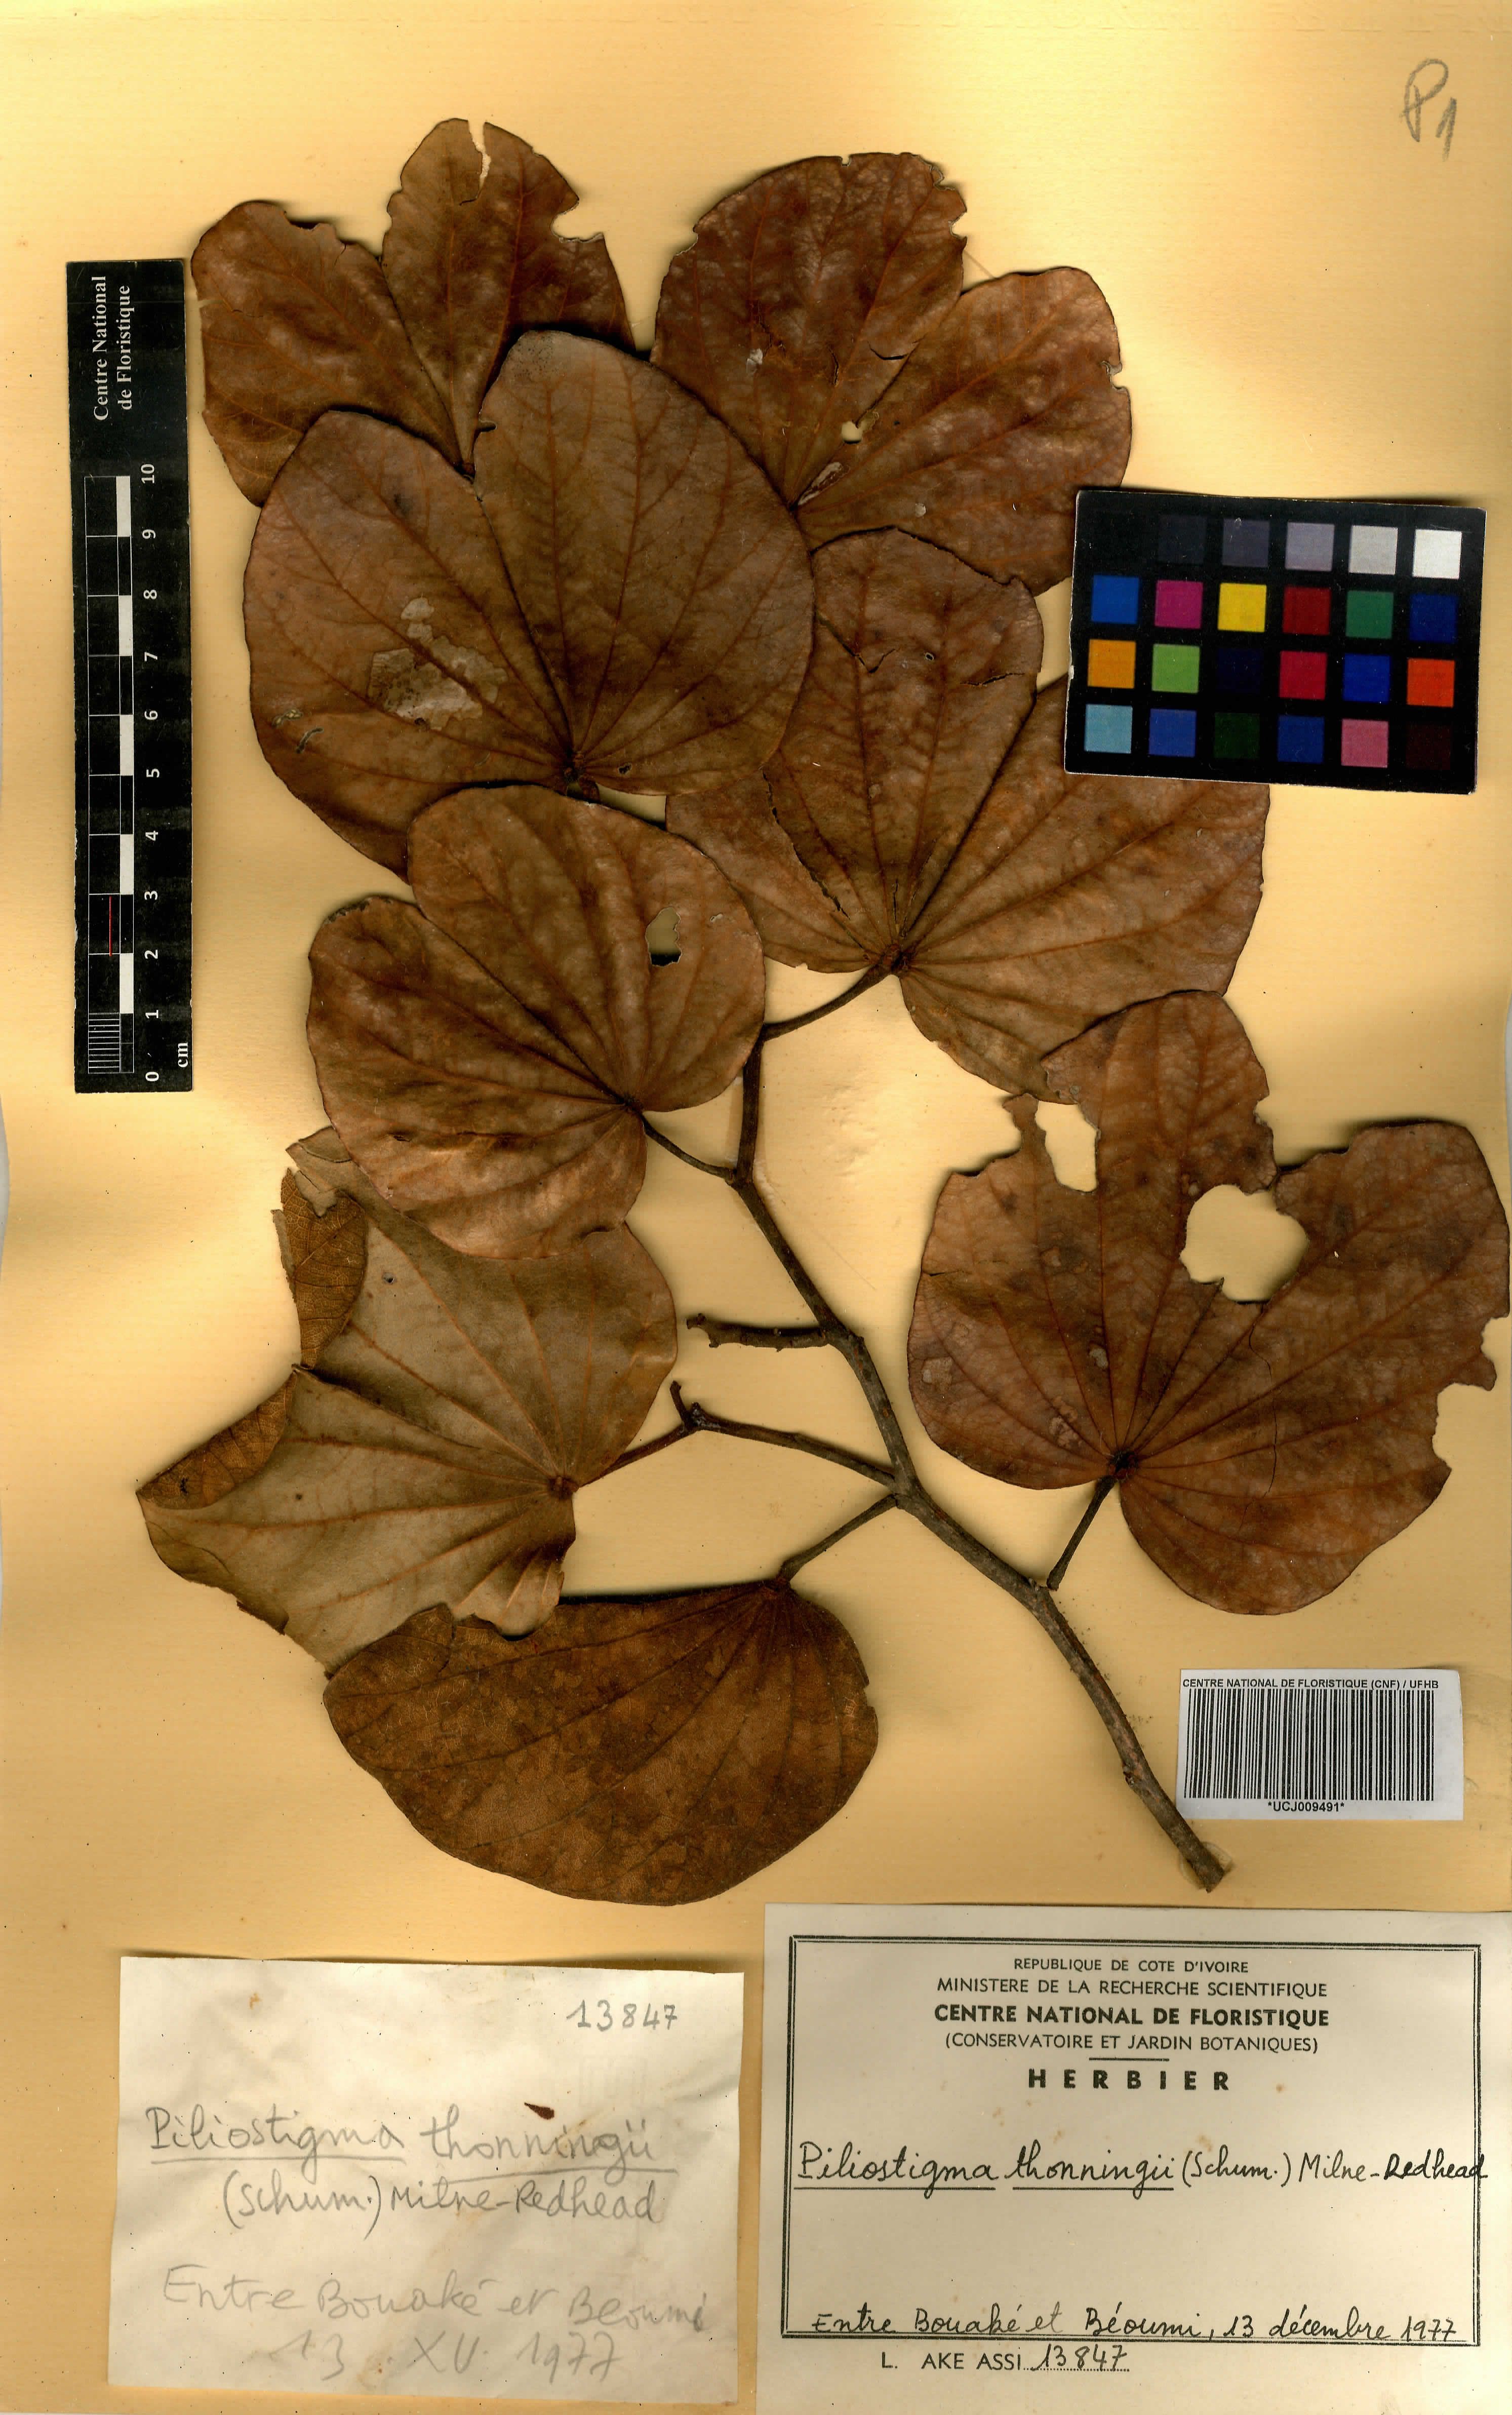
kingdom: Plantae
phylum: Tracheophyta
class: Magnoliopsida
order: Fabales
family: Fabaceae
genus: Piliostigma
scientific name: Piliostigma thonningii
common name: Kao
